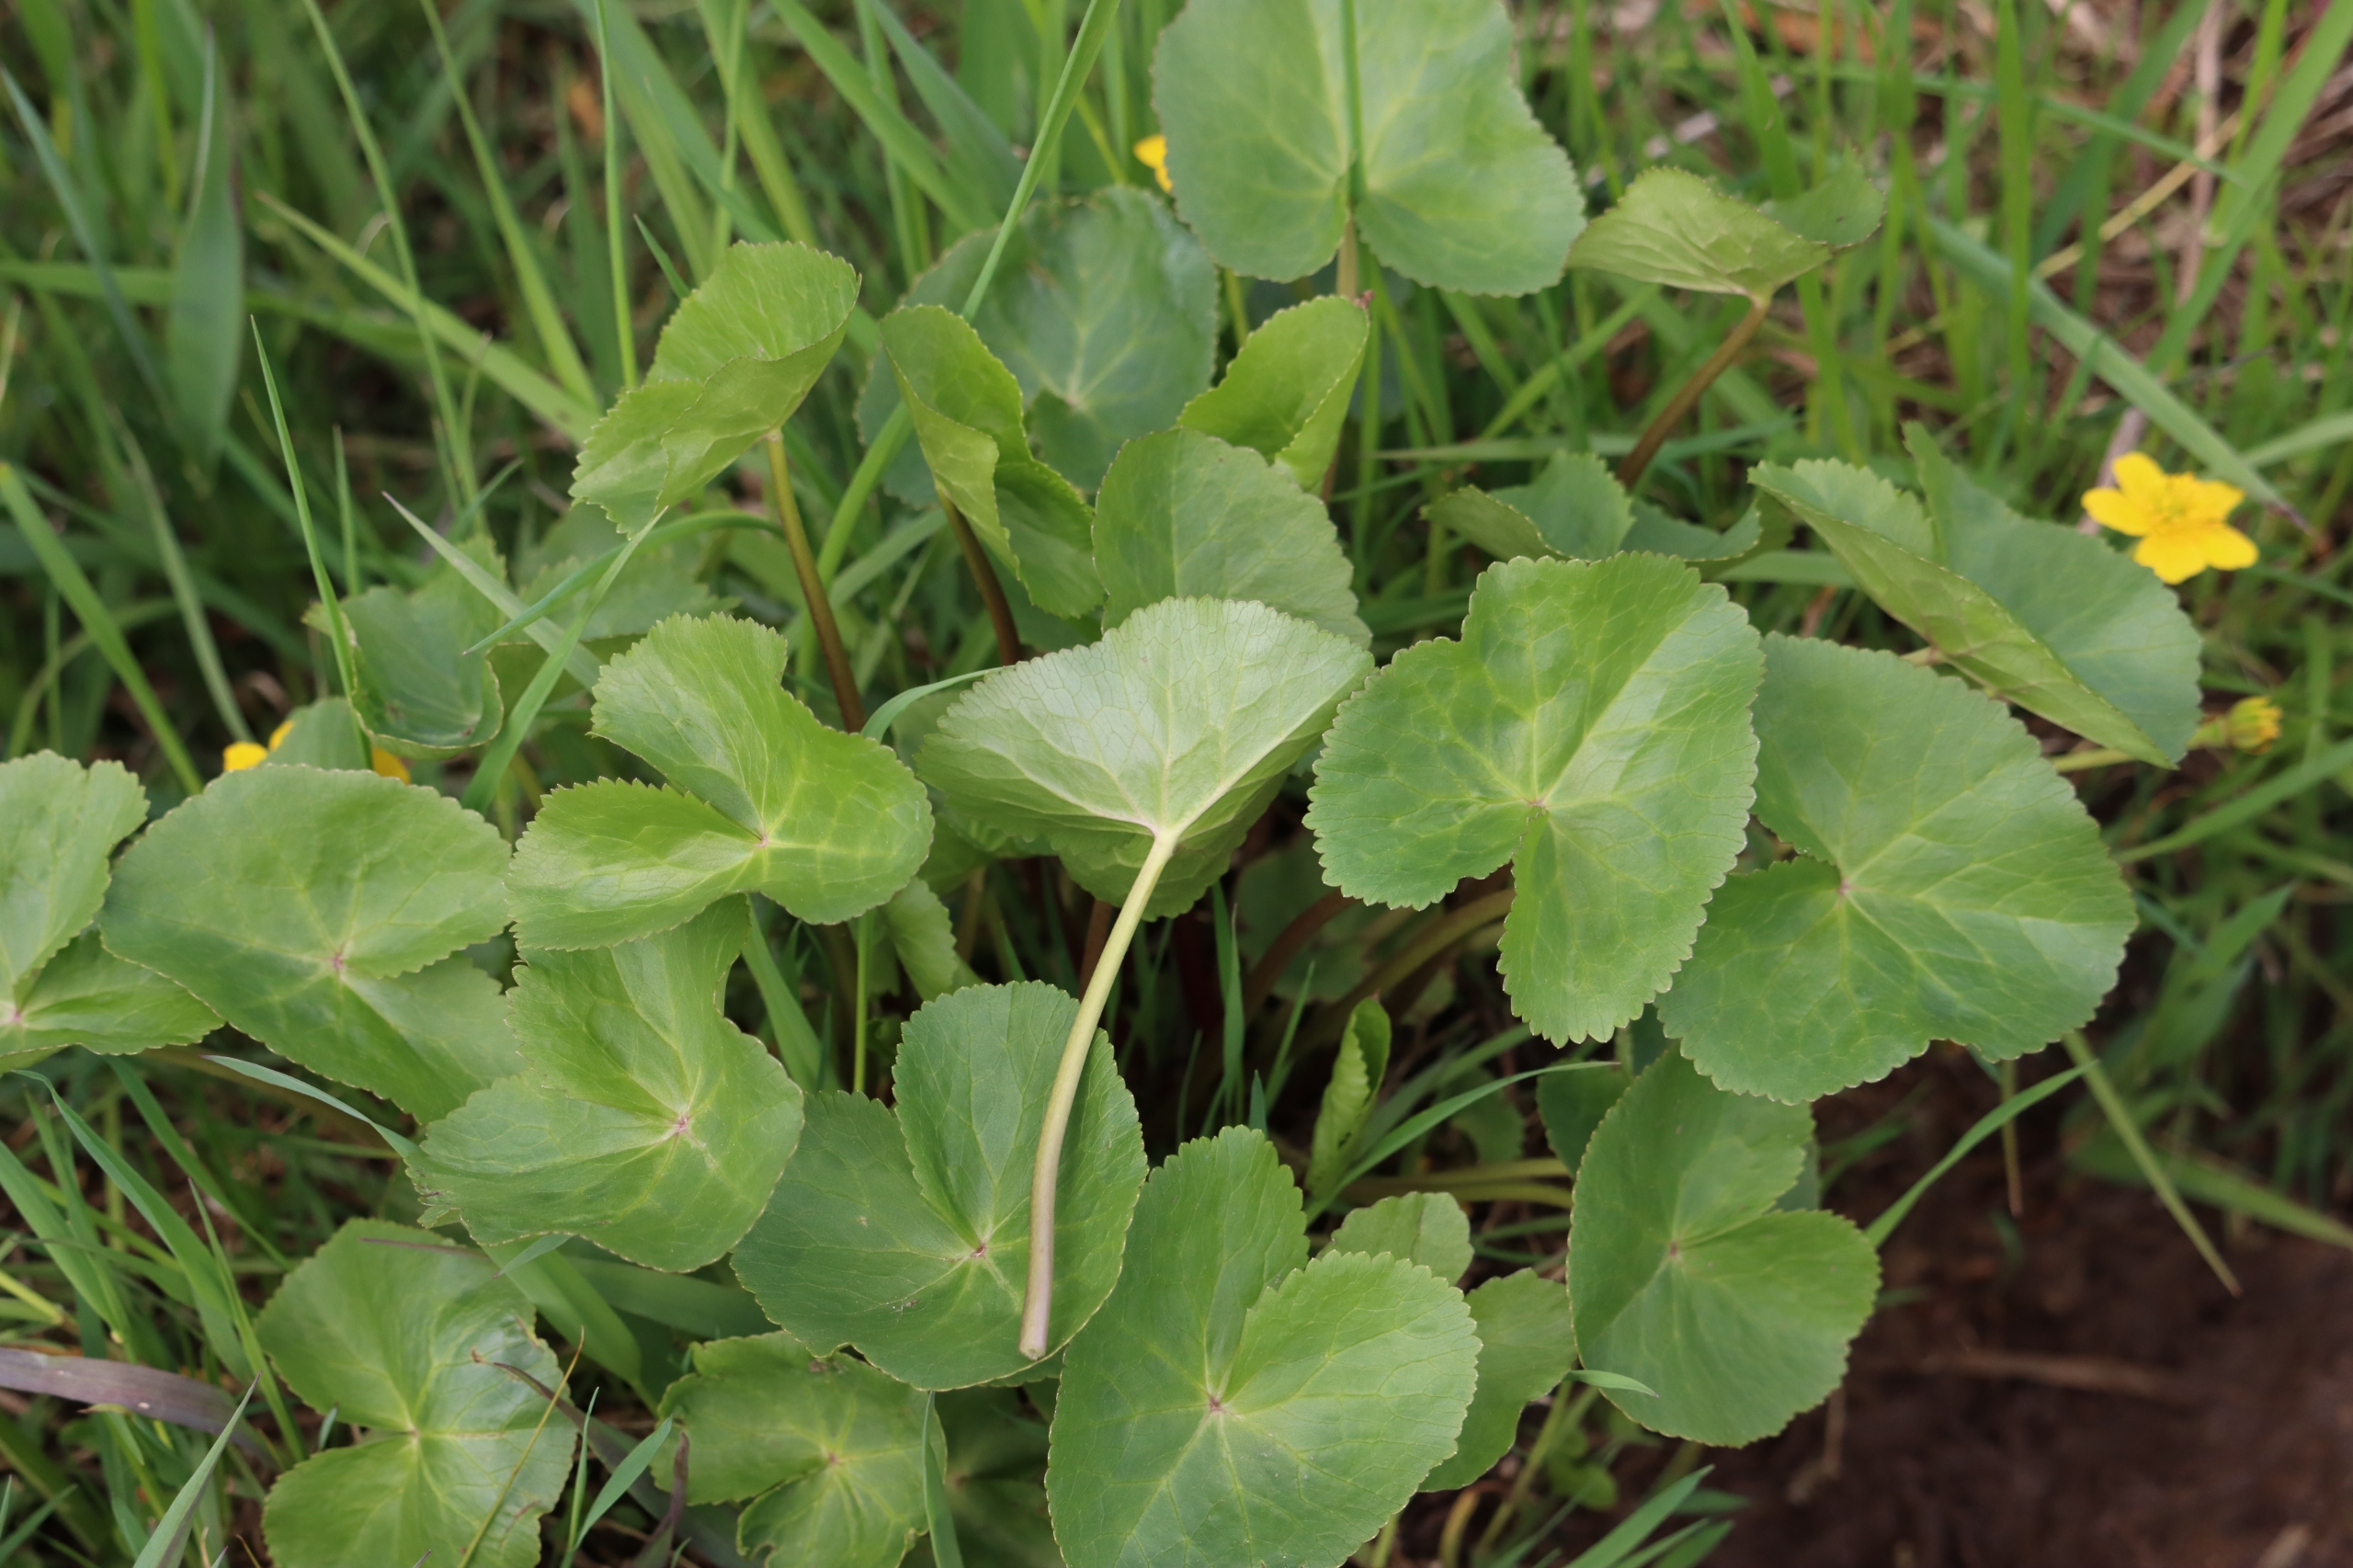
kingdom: Plantae
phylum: Tracheophyta
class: Magnoliopsida
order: Ranunculales
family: Ranunculaceae
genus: Caltha
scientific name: Caltha palustris
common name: Eng-kabbeleje
